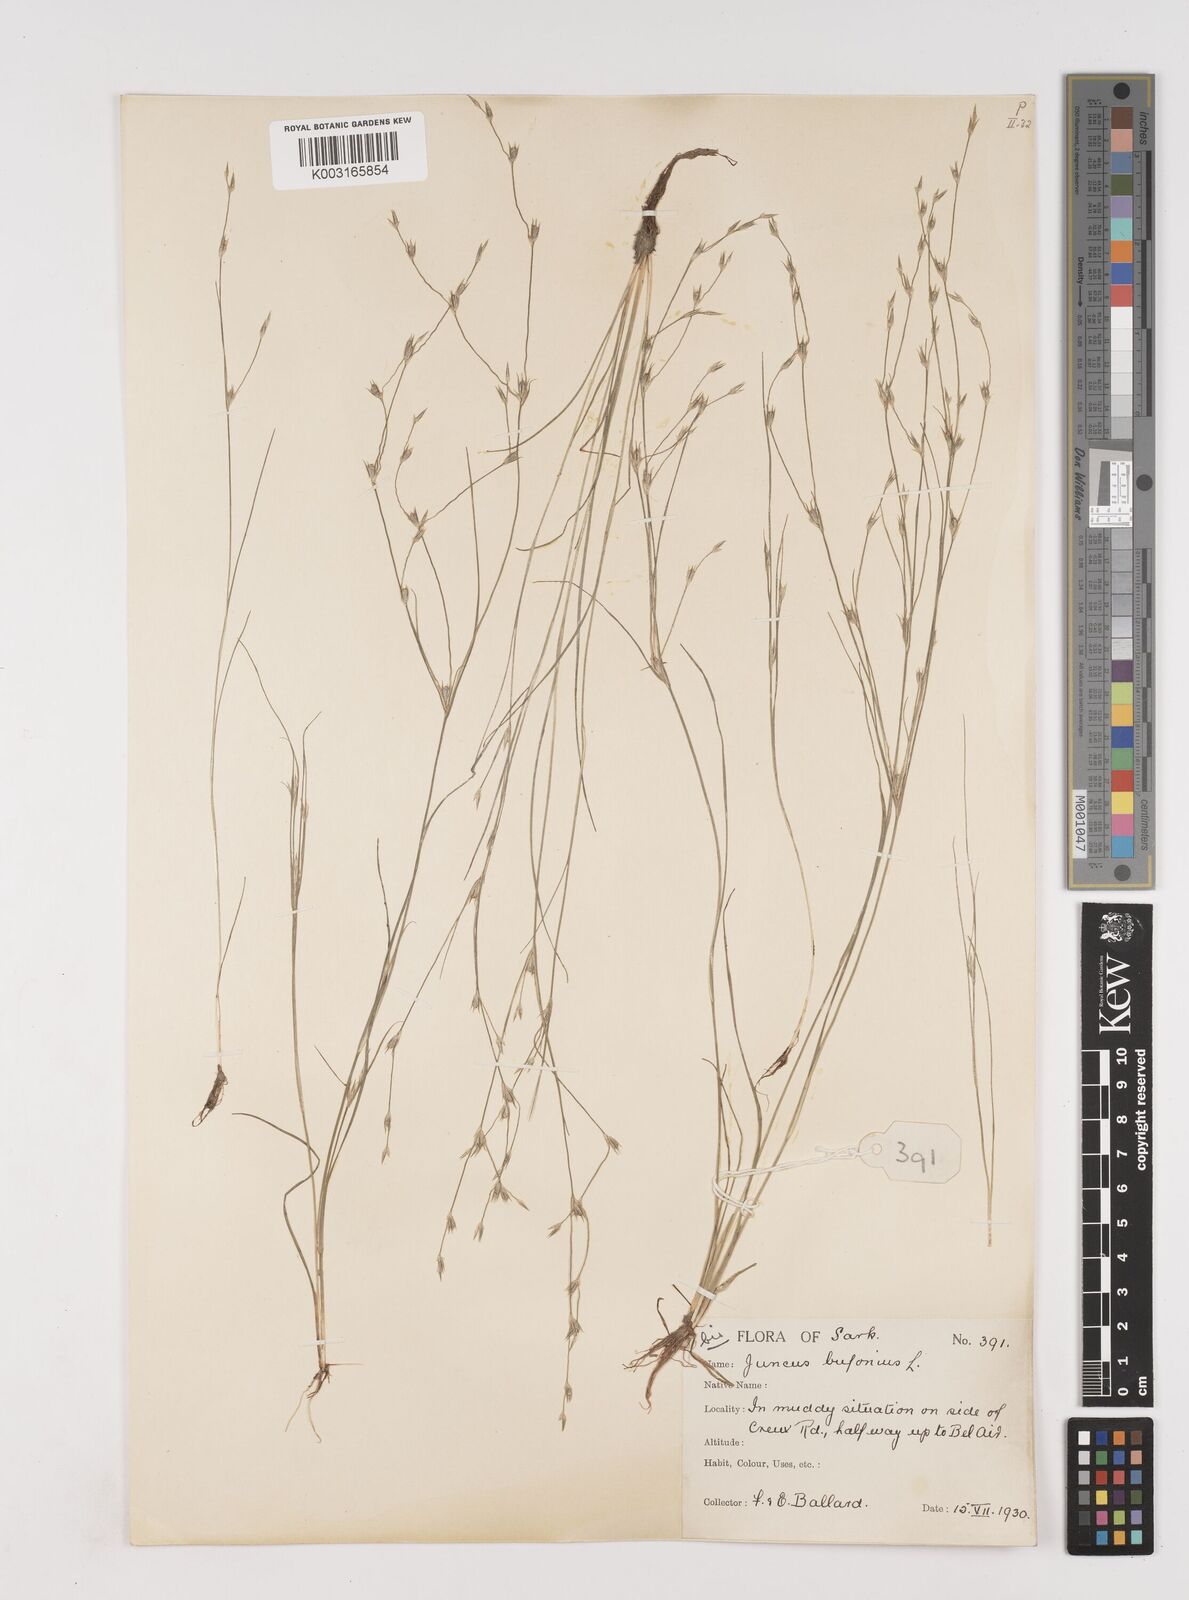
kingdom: Plantae
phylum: Tracheophyta
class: Liliopsida
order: Poales
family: Juncaceae
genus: Juncus
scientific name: Juncus bufonius
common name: Toad rush
